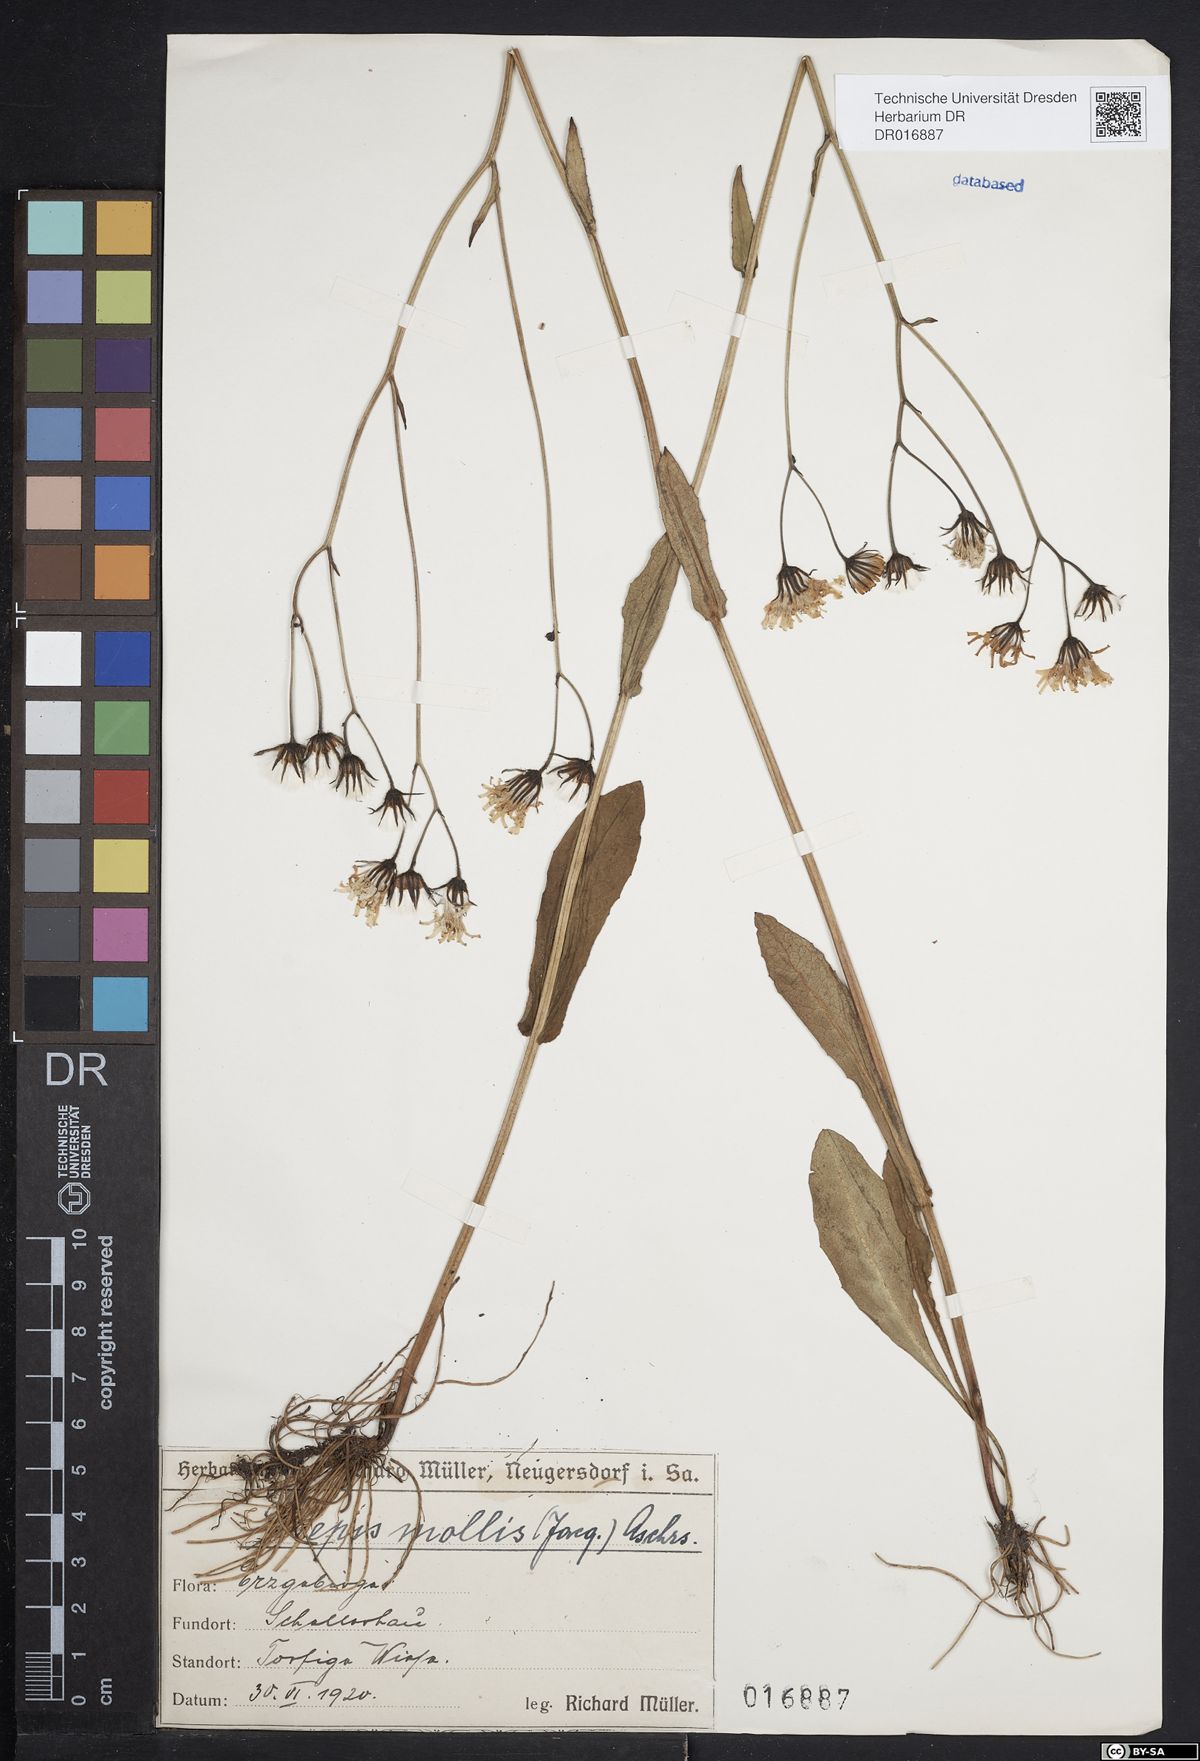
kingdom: Plantae
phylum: Tracheophyta
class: Magnoliopsida
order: Asterales
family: Asteraceae
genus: Crepis
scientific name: Crepis mollis
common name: Northern hawk's-beard
